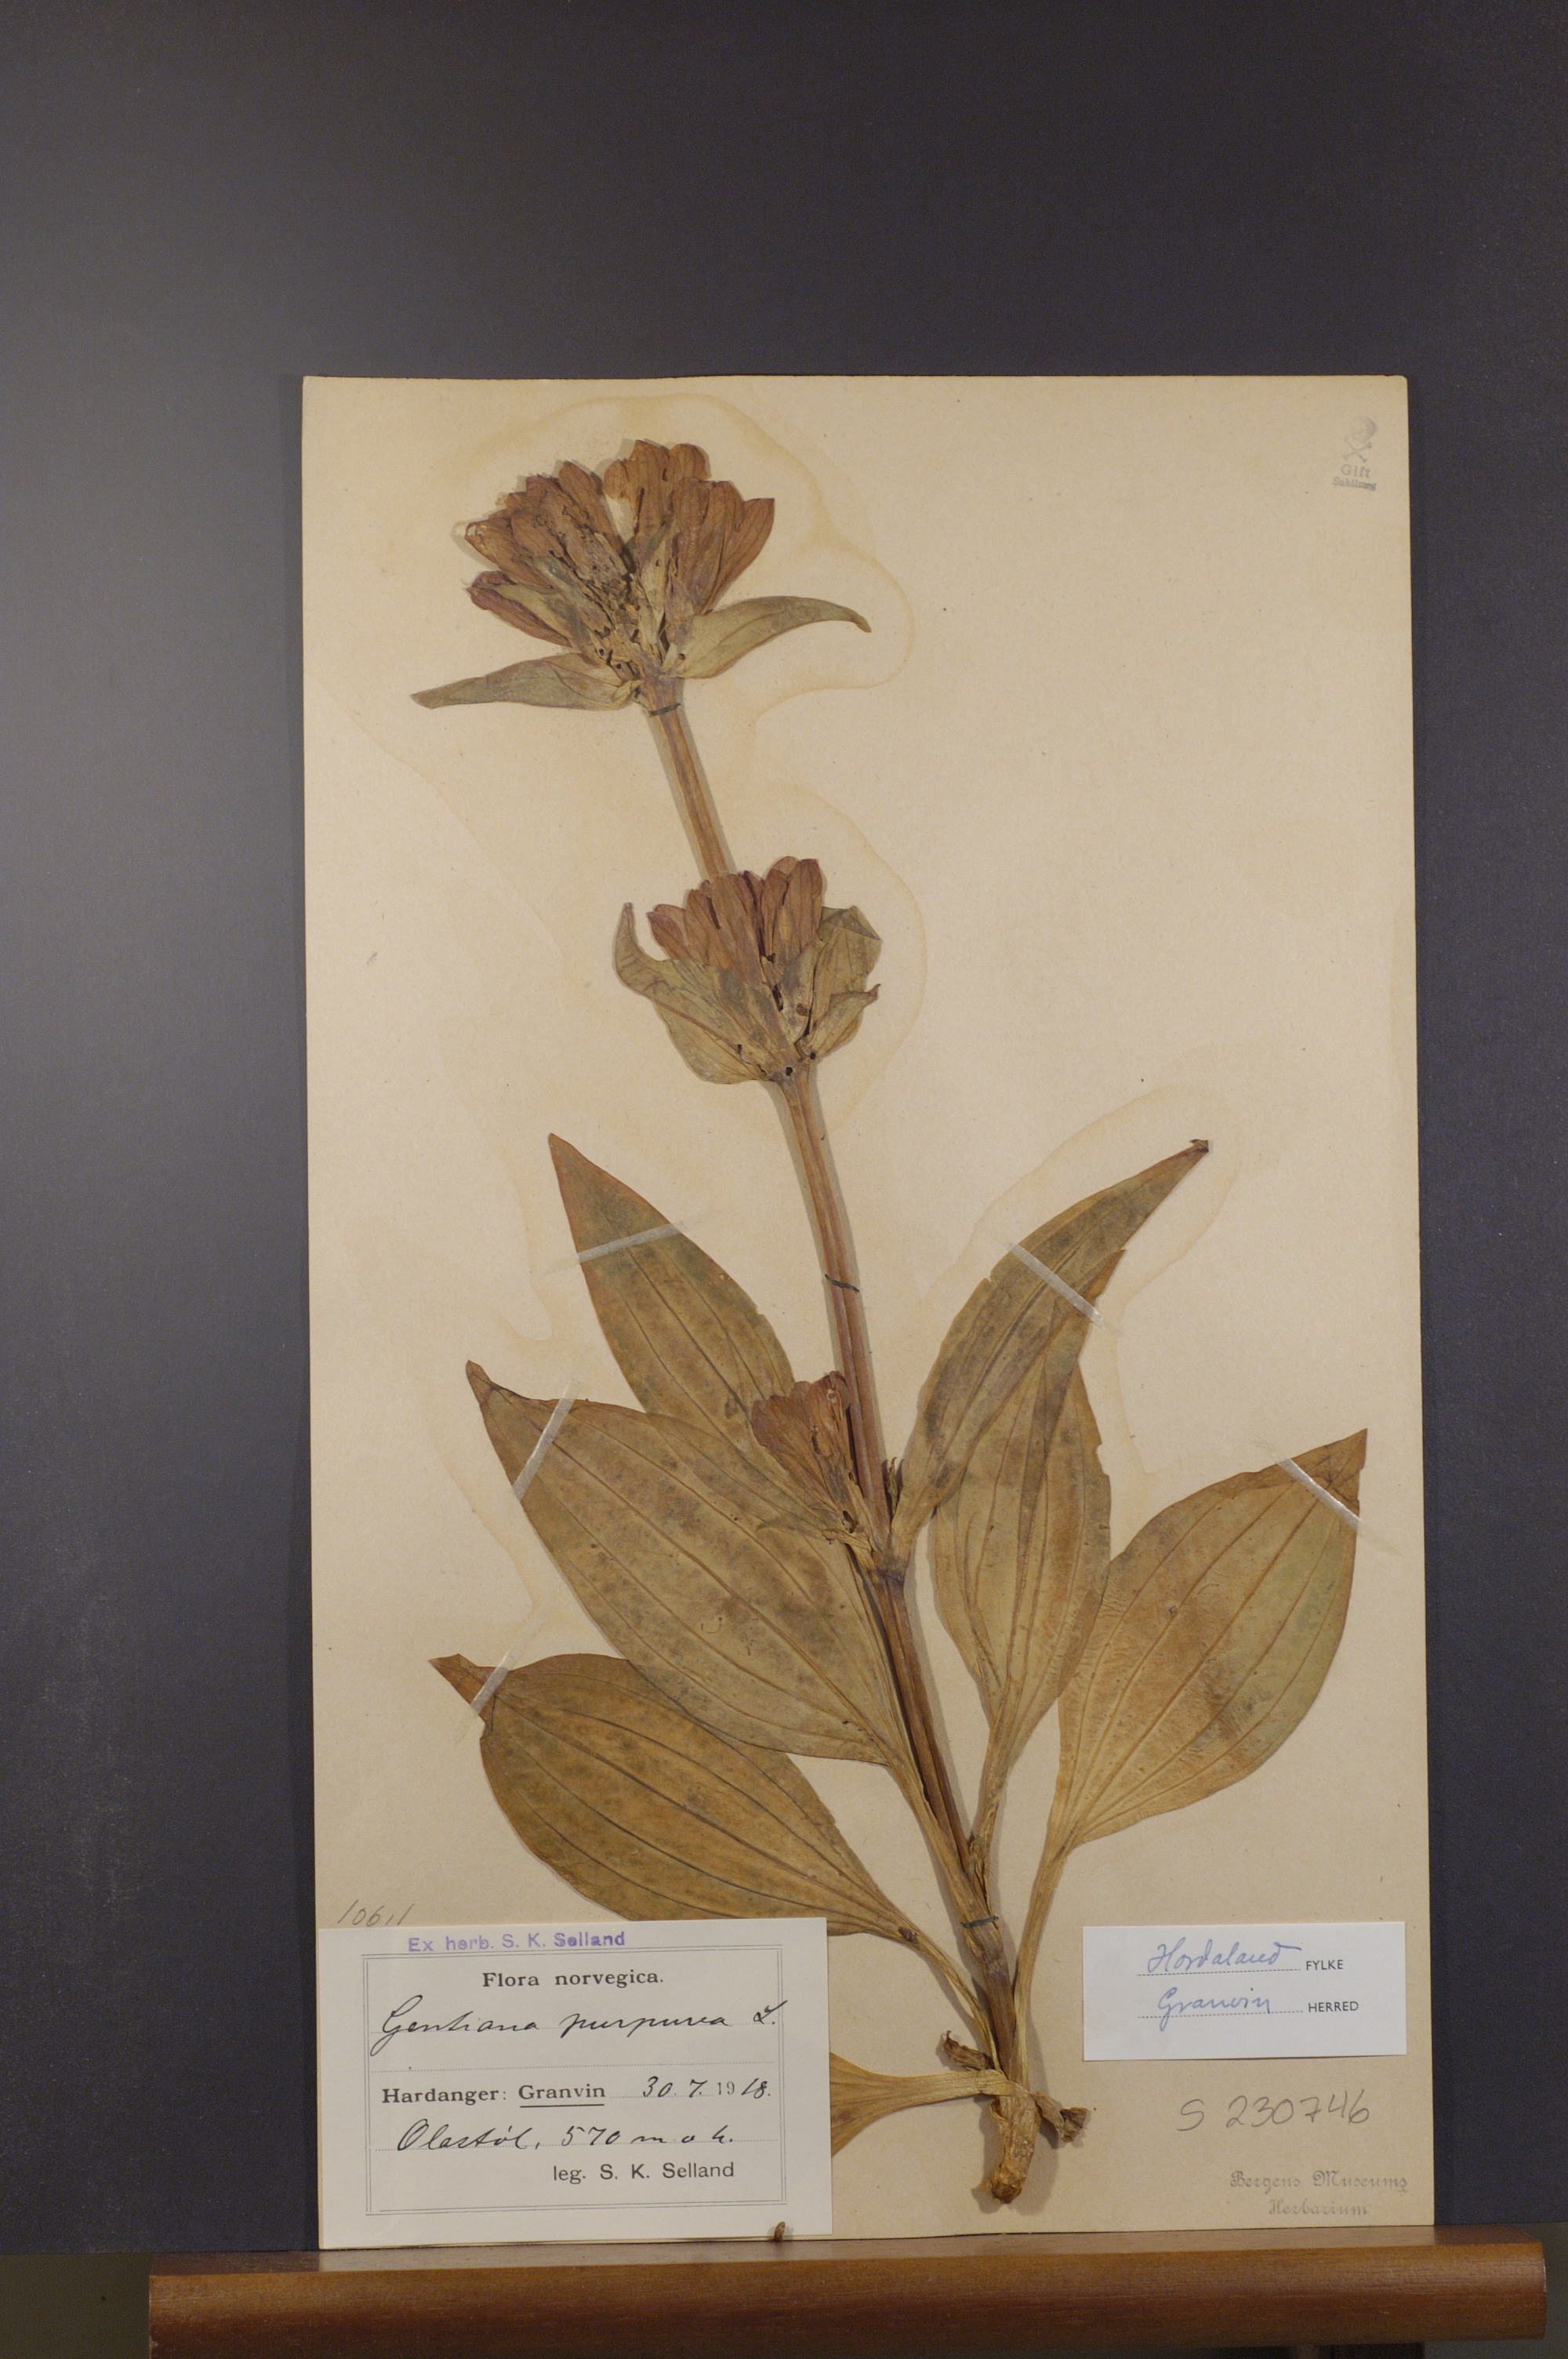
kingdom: Plantae
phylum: Tracheophyta
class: Magnoliopsida
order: Gentianales
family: Gentianaceae
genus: Gentiana
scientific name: Gentiana purpurea
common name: Purple gentian
